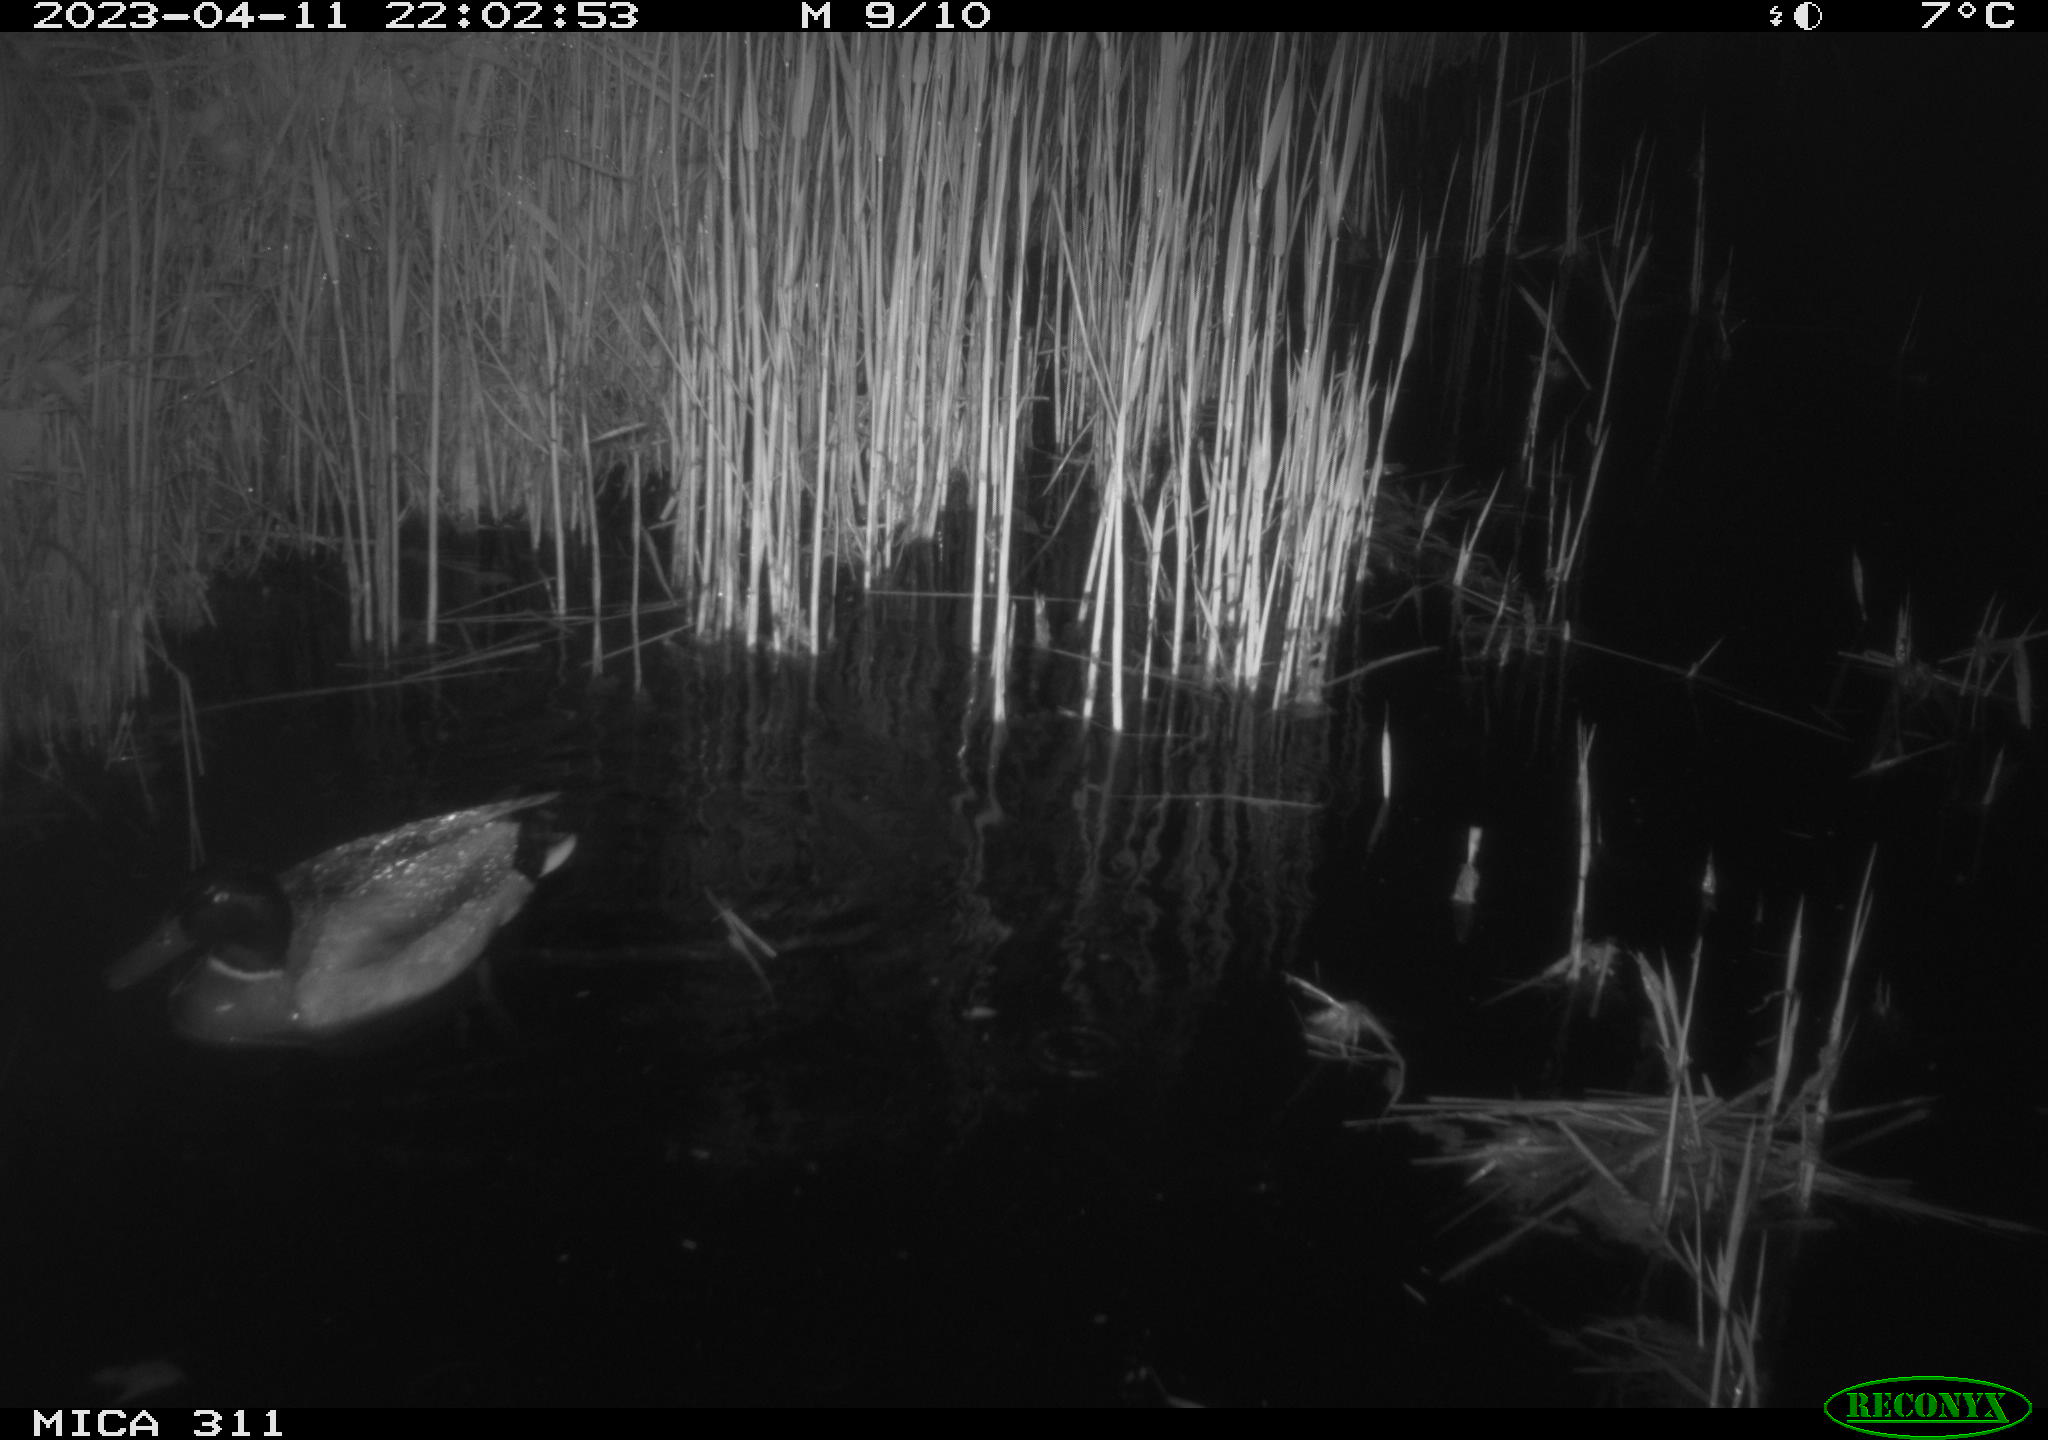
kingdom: Animalia
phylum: Chordata
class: Aves
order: Anseriformes
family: Anatidae
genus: Anas
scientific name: Anas
